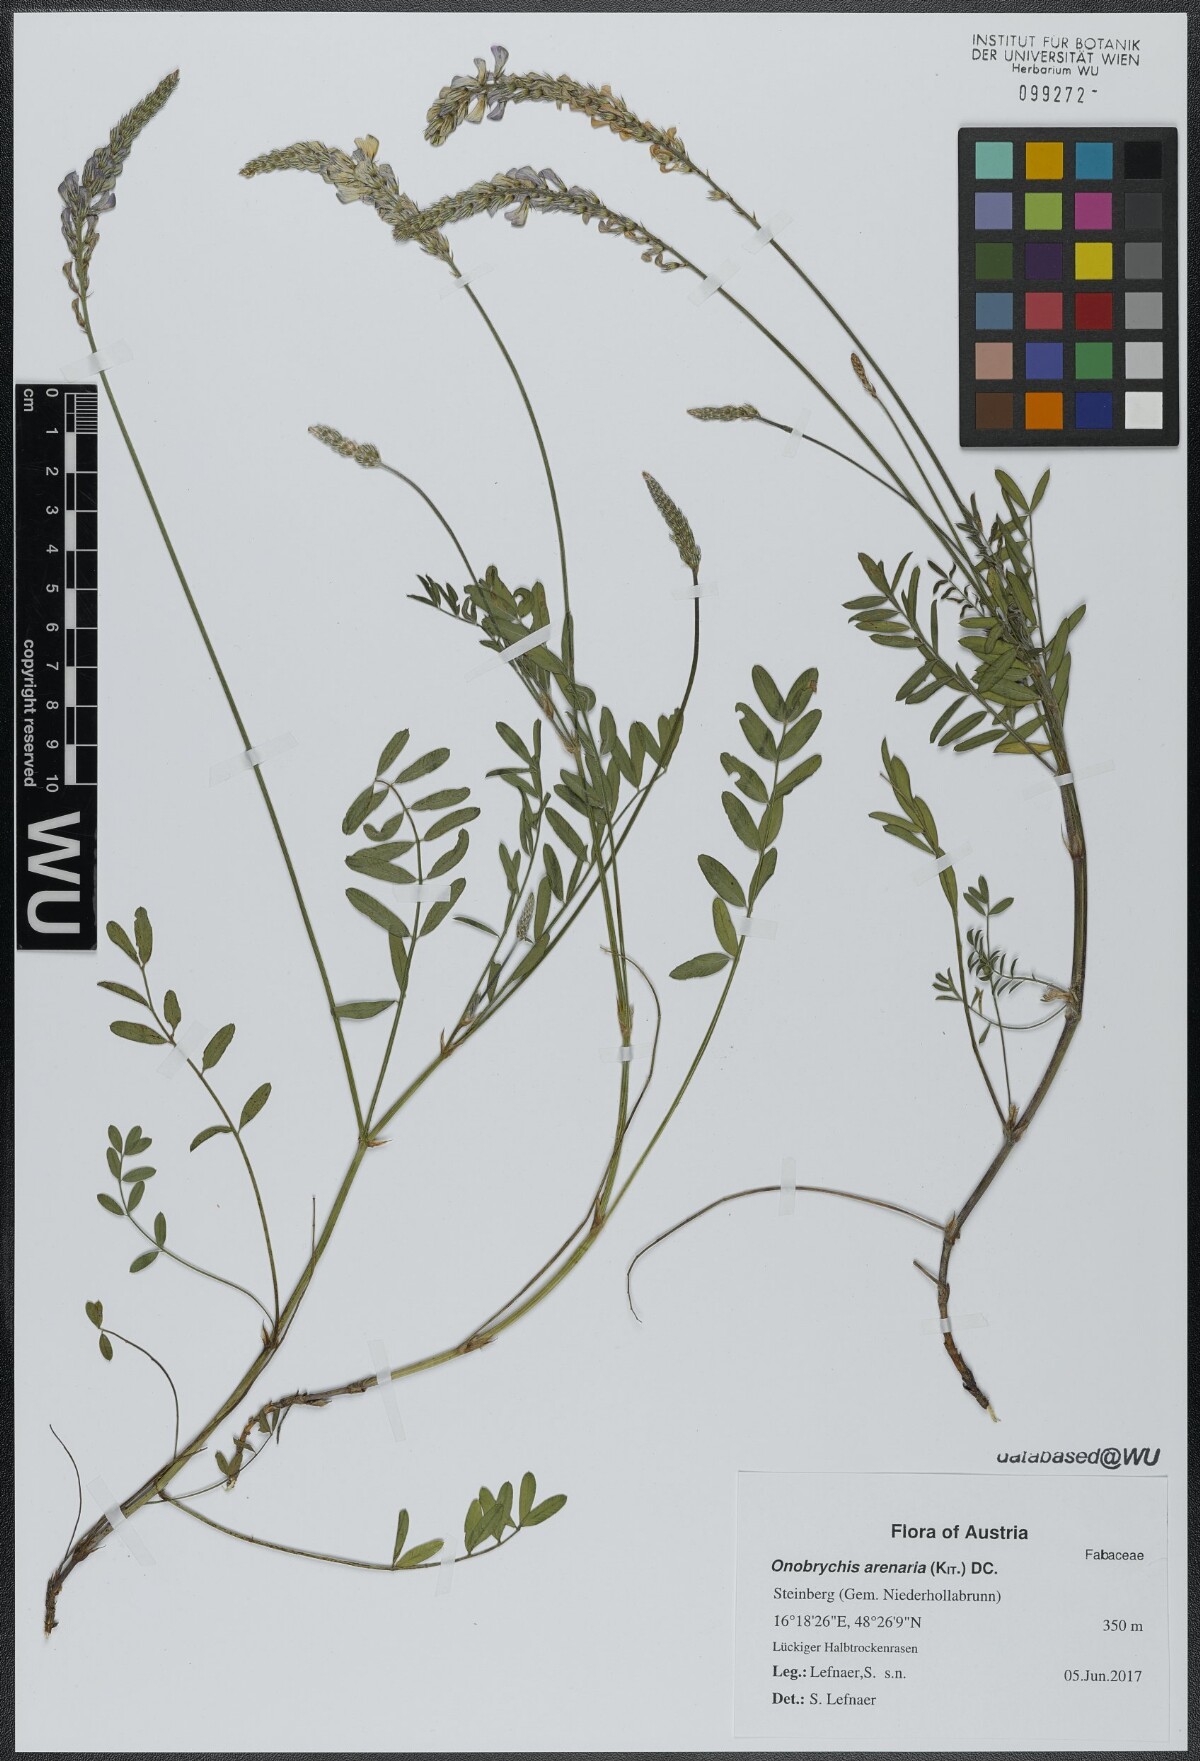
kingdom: Plantae
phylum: Tracheophyta
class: Magnoliopsida
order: Fabales
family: Fabaceae
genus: Onobrychis
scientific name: Onobrychis arenaria
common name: Sand esparcet
